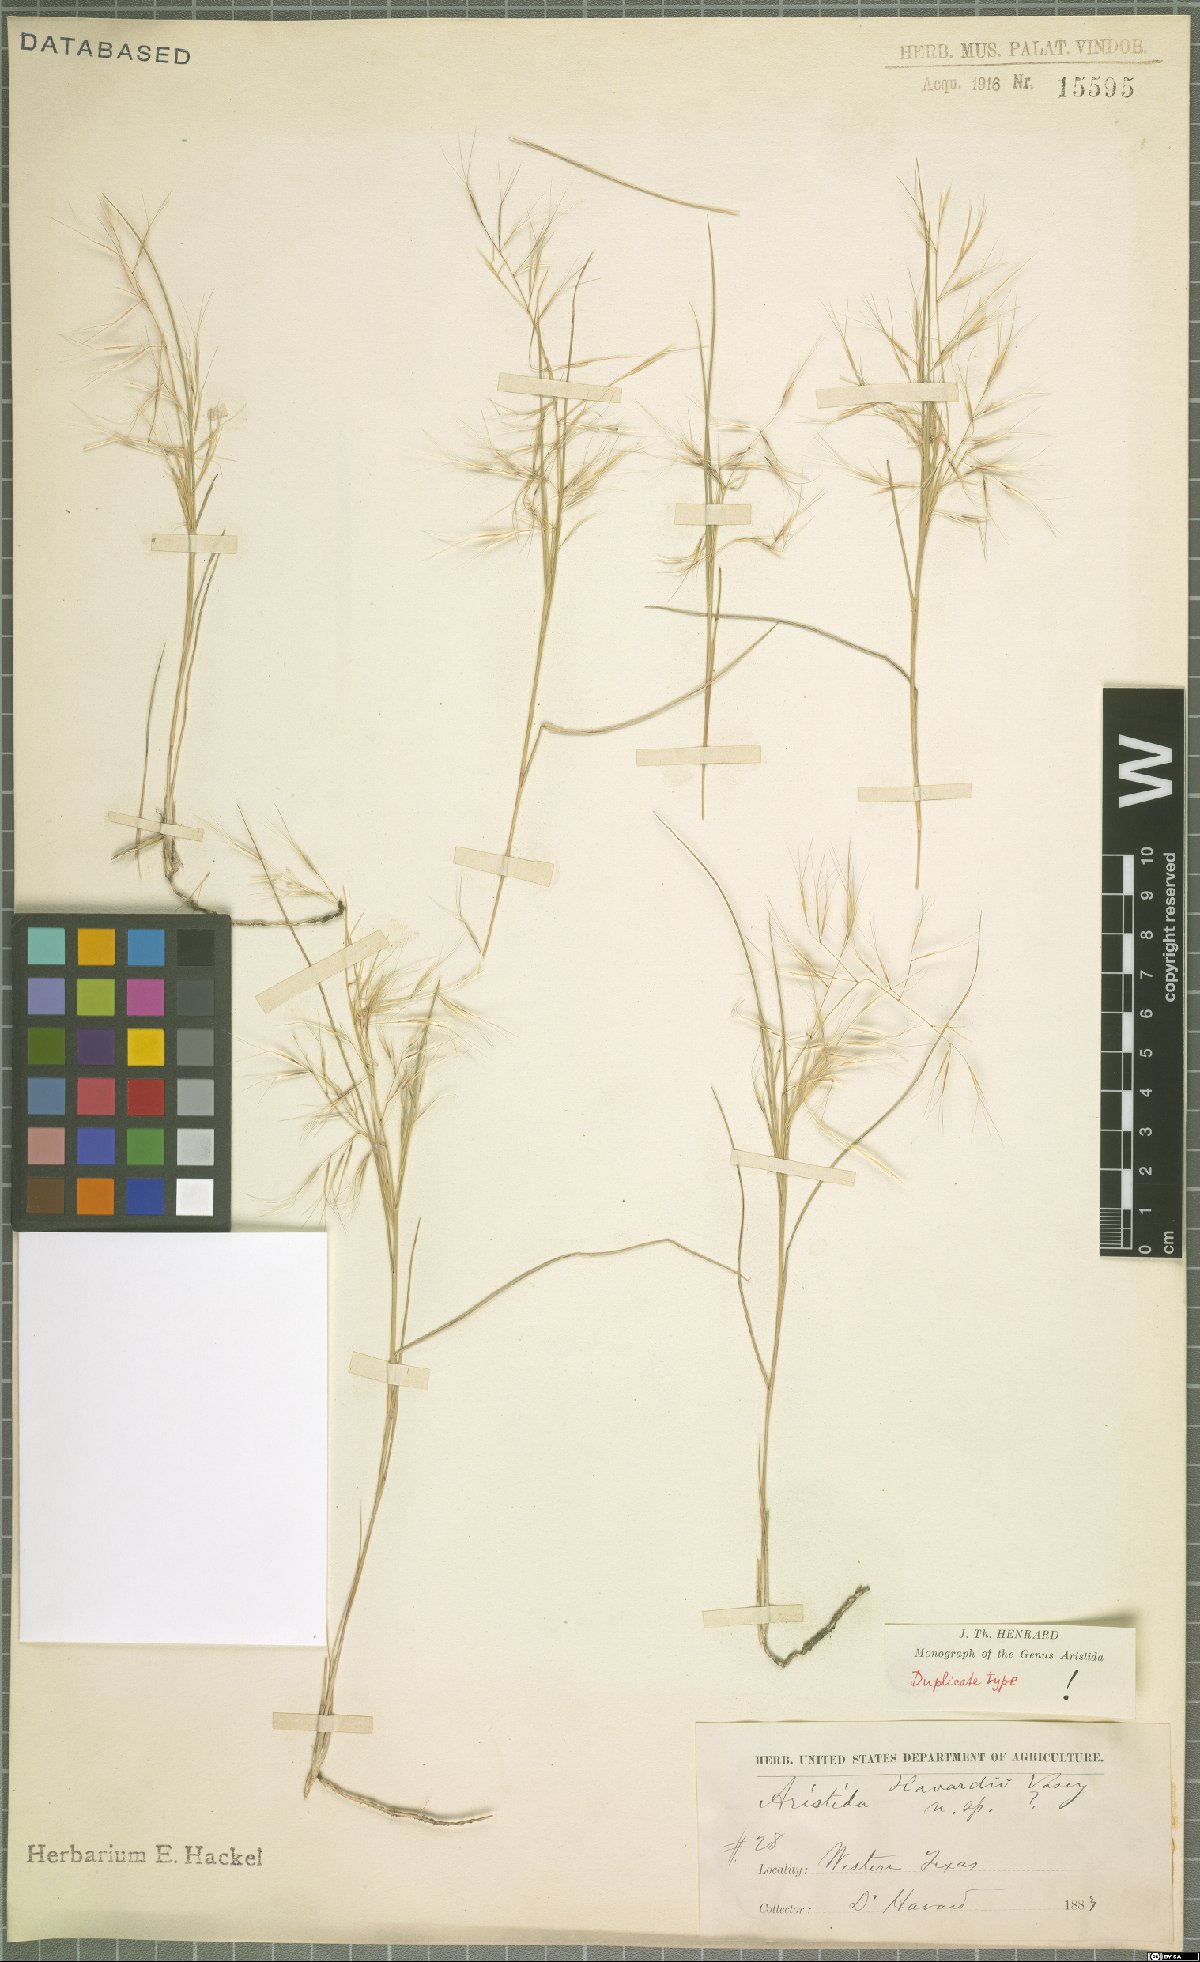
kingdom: Plantae
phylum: Tracheophyta
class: Liliopsida
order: Poales
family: Poaceae
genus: Aristida
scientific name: Aristida havardii
